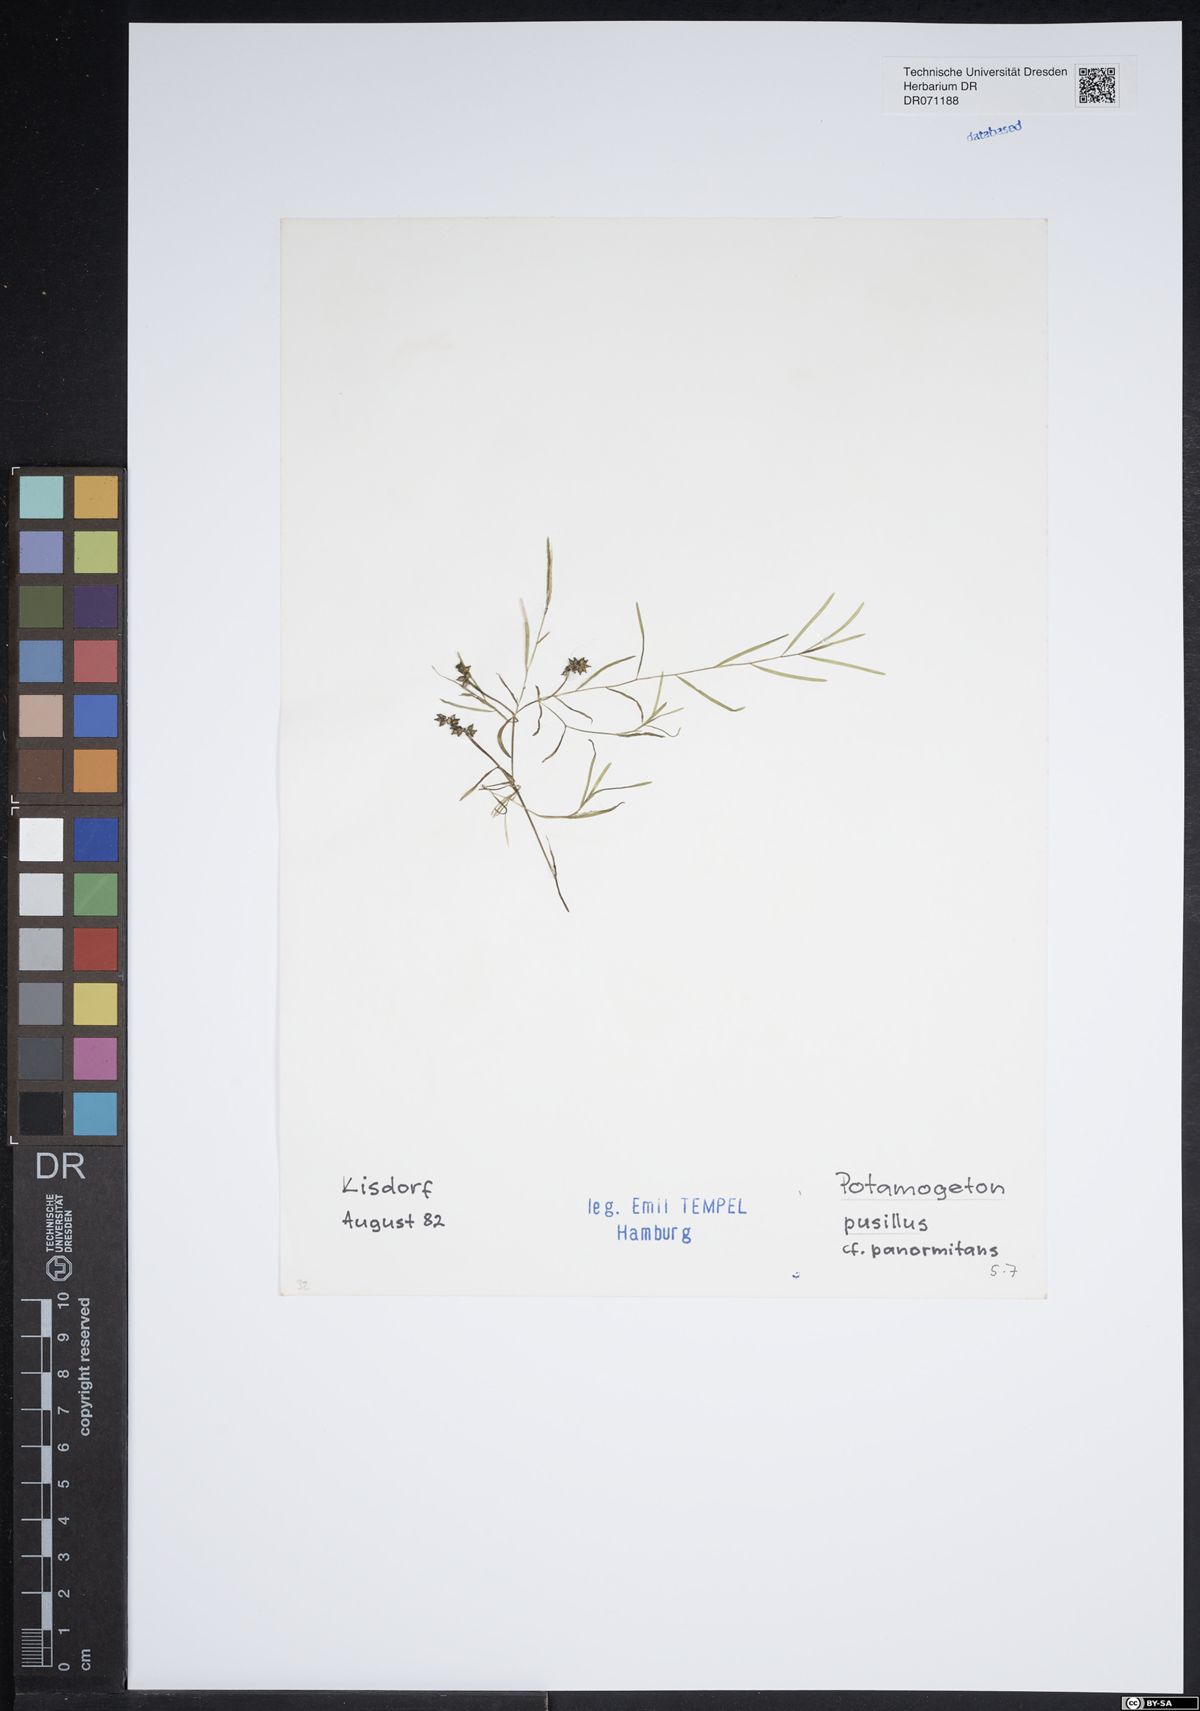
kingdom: Plantae
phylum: Tracheophyta
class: Liliopsida
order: Alismatales
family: Potamogetonaceae
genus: Potamogeton
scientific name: Potamogeton pusillus
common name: Lesser pondweed
